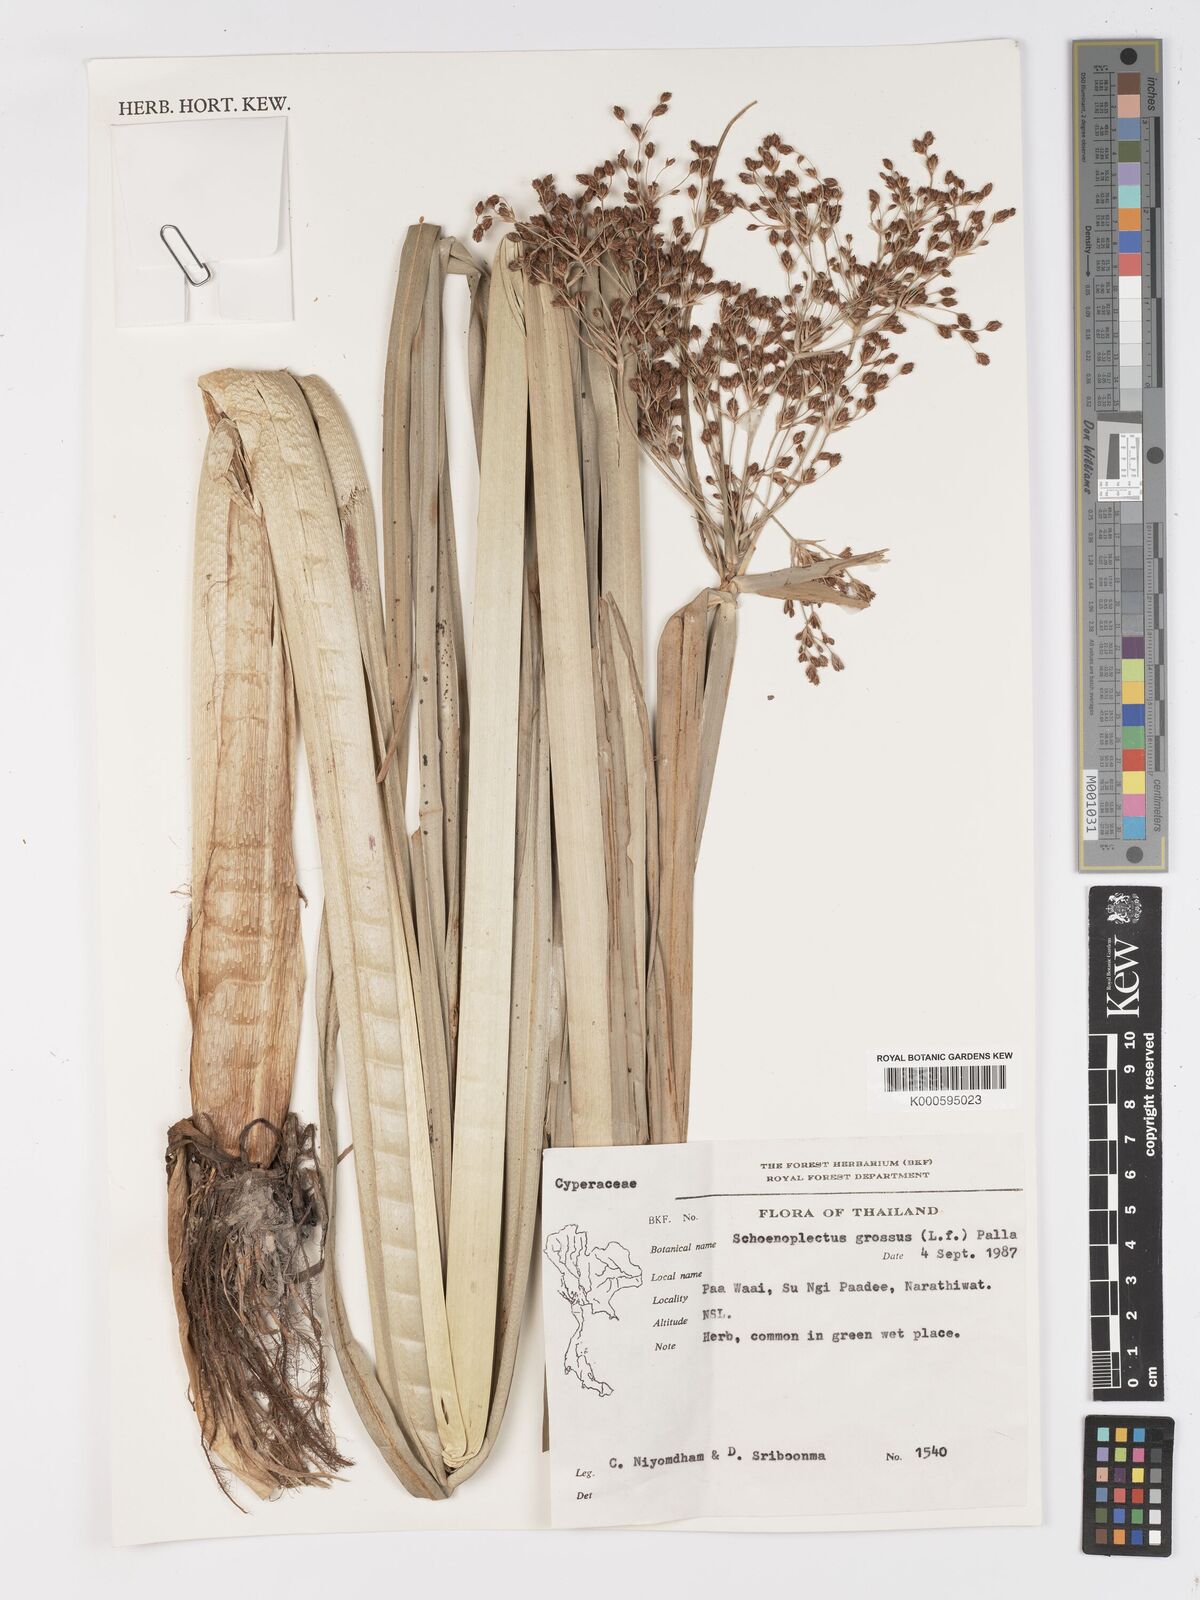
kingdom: Plantae
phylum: Tracheophyta
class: Liliopsida
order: Poales
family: Cyperaceae
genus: Actinoscirpus
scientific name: Actinoscirpus grossus
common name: Giant bur rush
